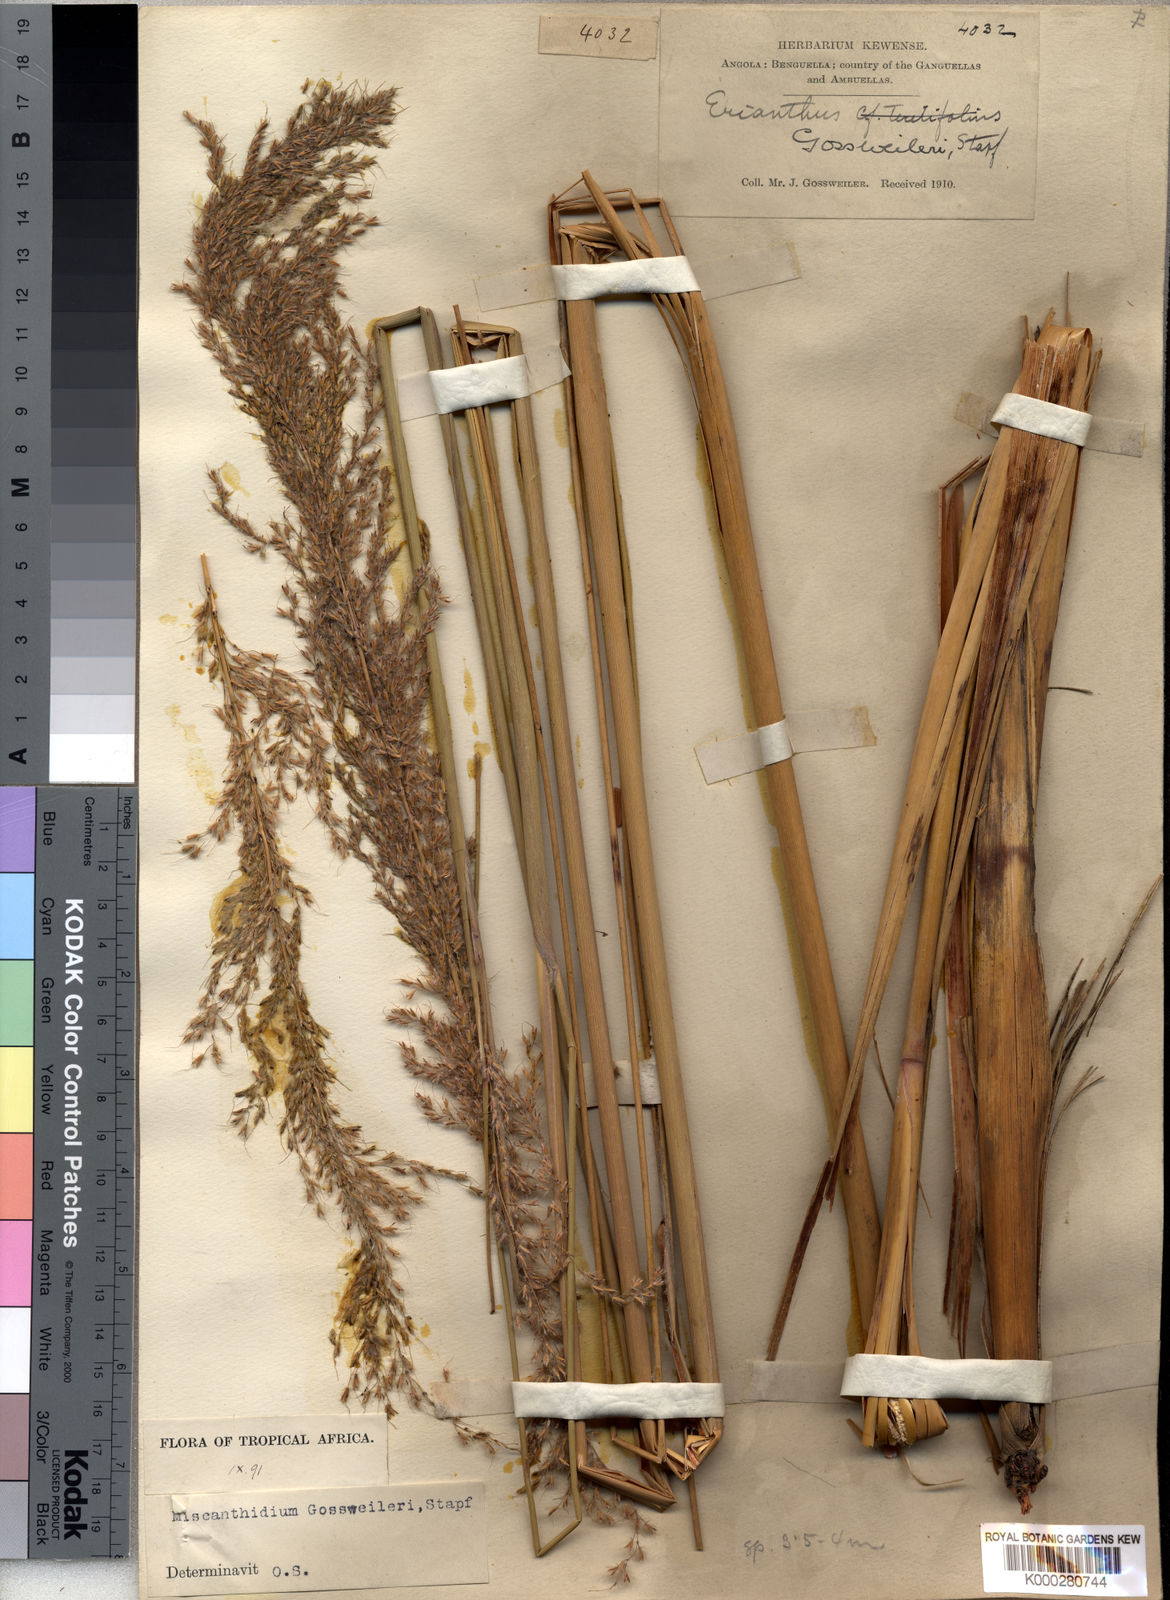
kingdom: Plantae
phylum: Tracheophyta
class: Liliopsida
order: Poales
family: Poaceae
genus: Miscanthidium
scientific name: Miscanthidium junceum
